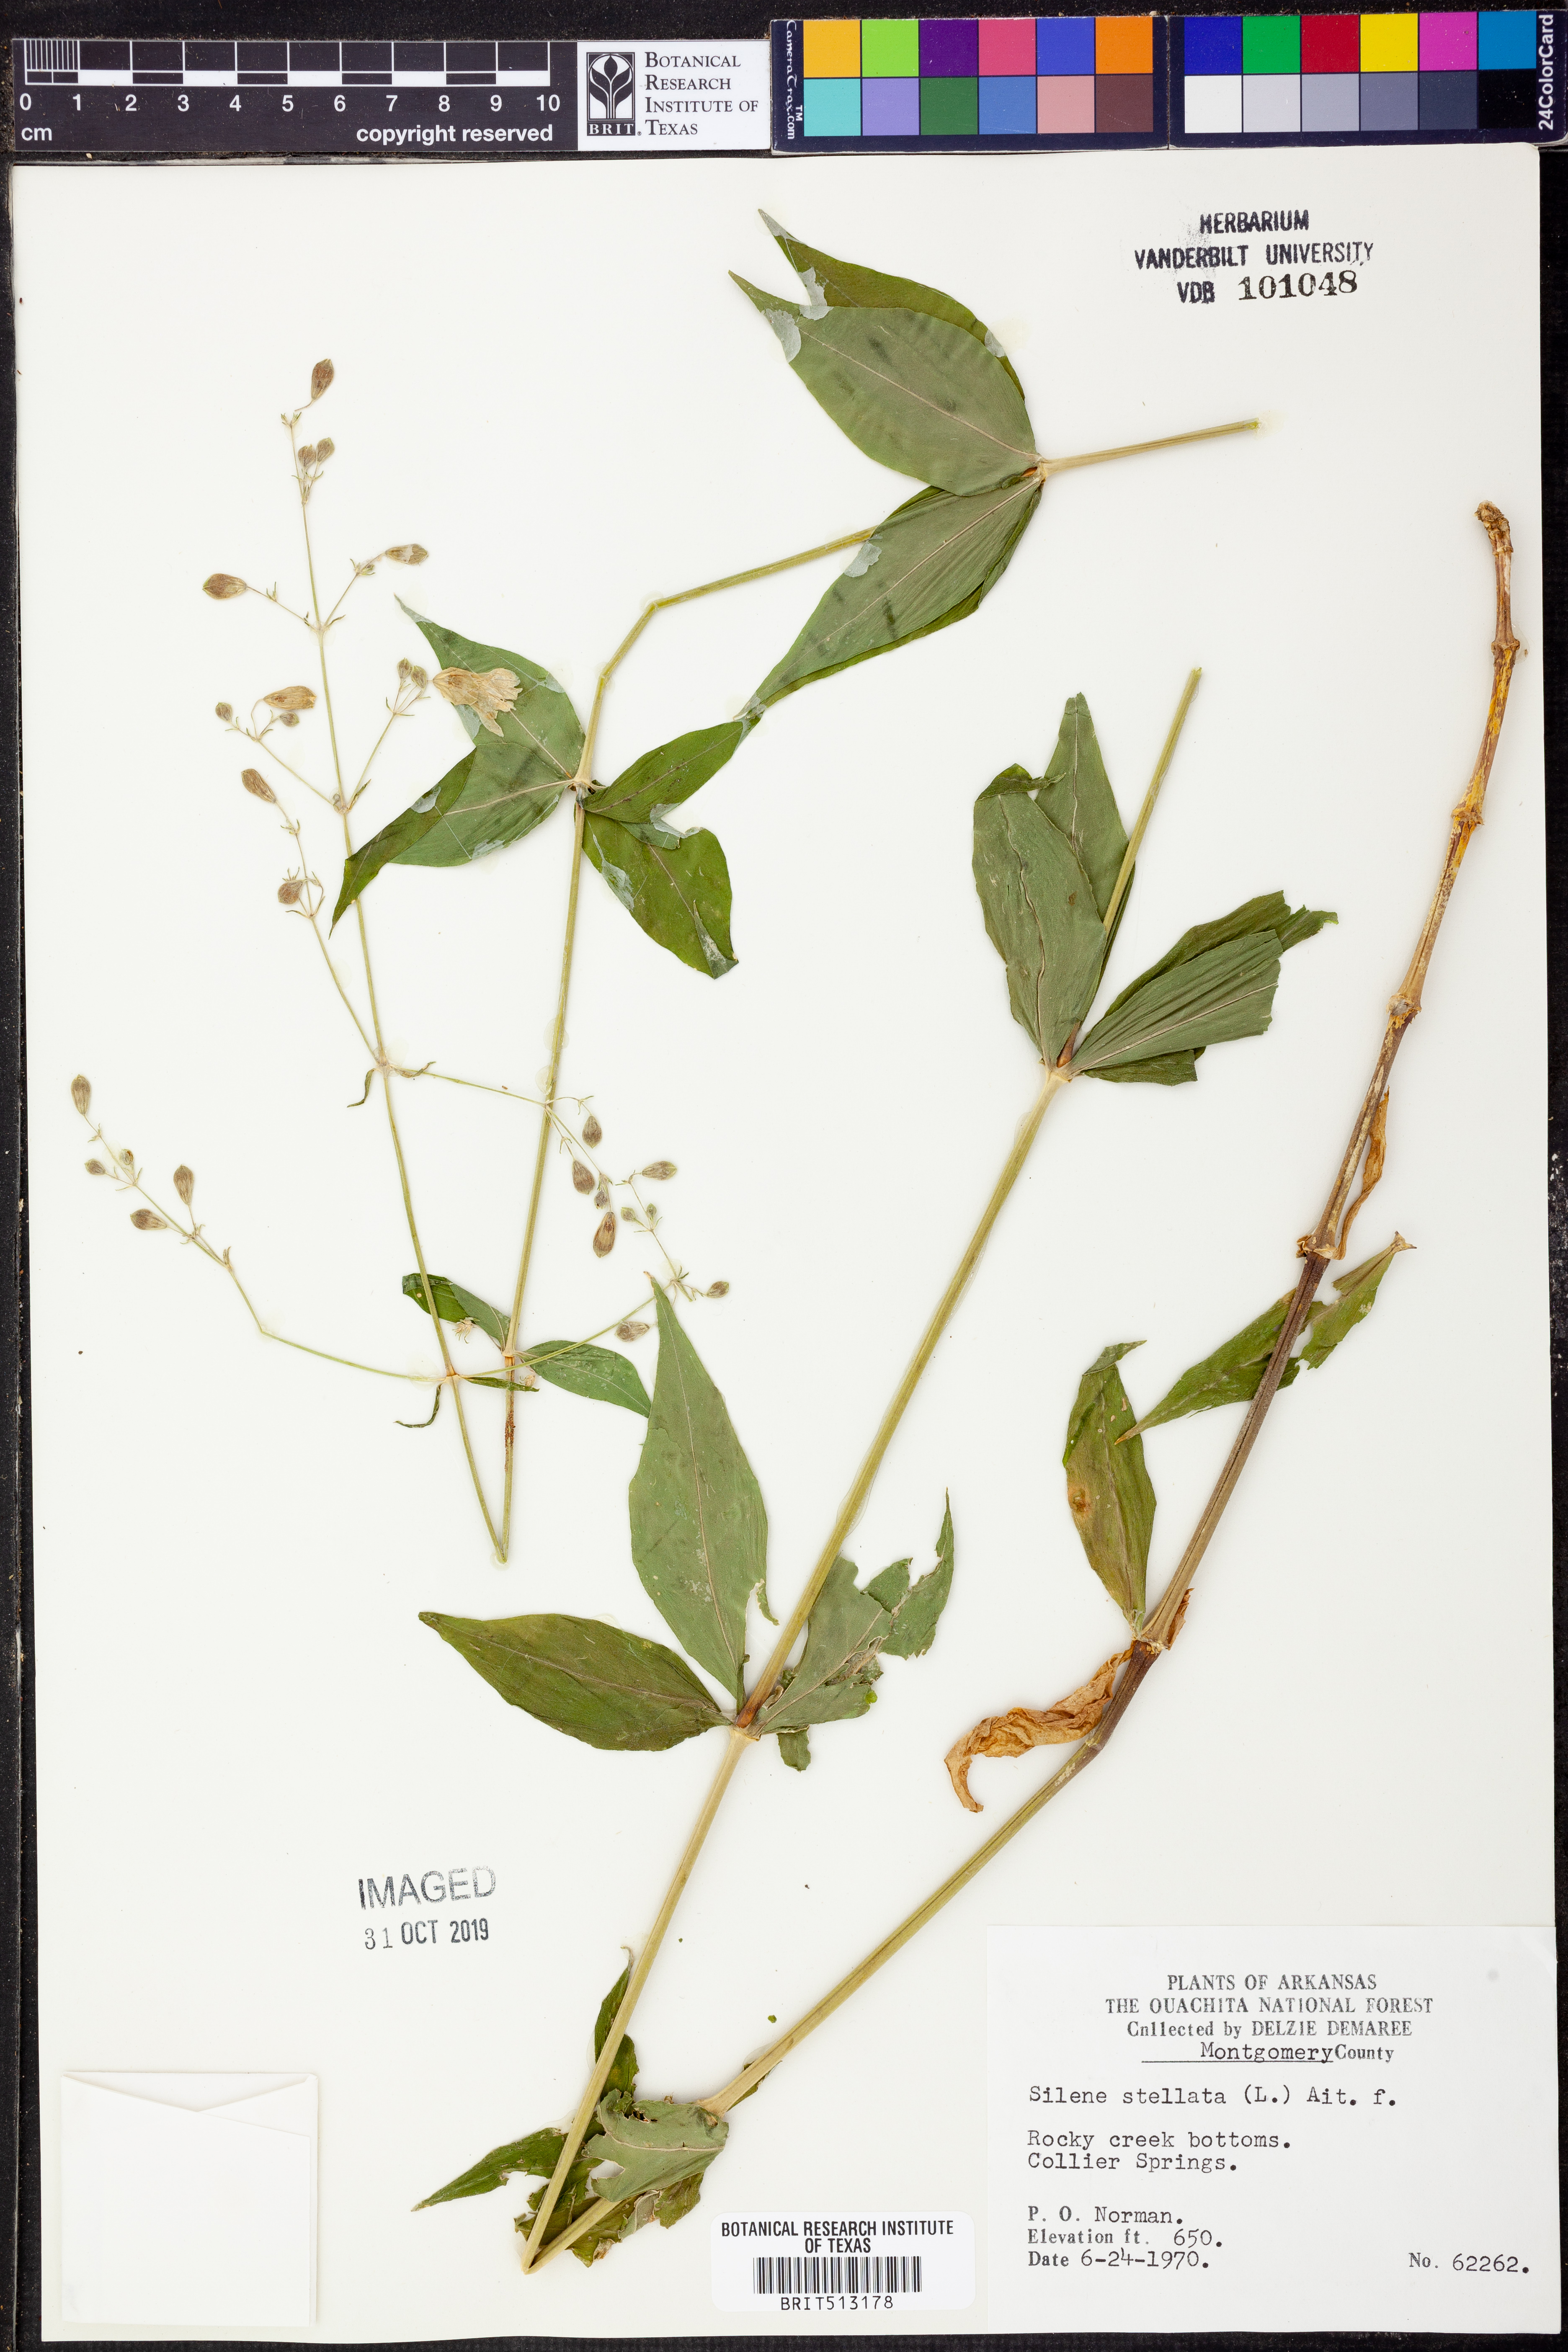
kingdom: Plantae
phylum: Tracheophyta
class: Magnoliopsida
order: Caryophyllales
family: Caryophyllaceae
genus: Silene
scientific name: Silene stellata
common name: Starry campion
